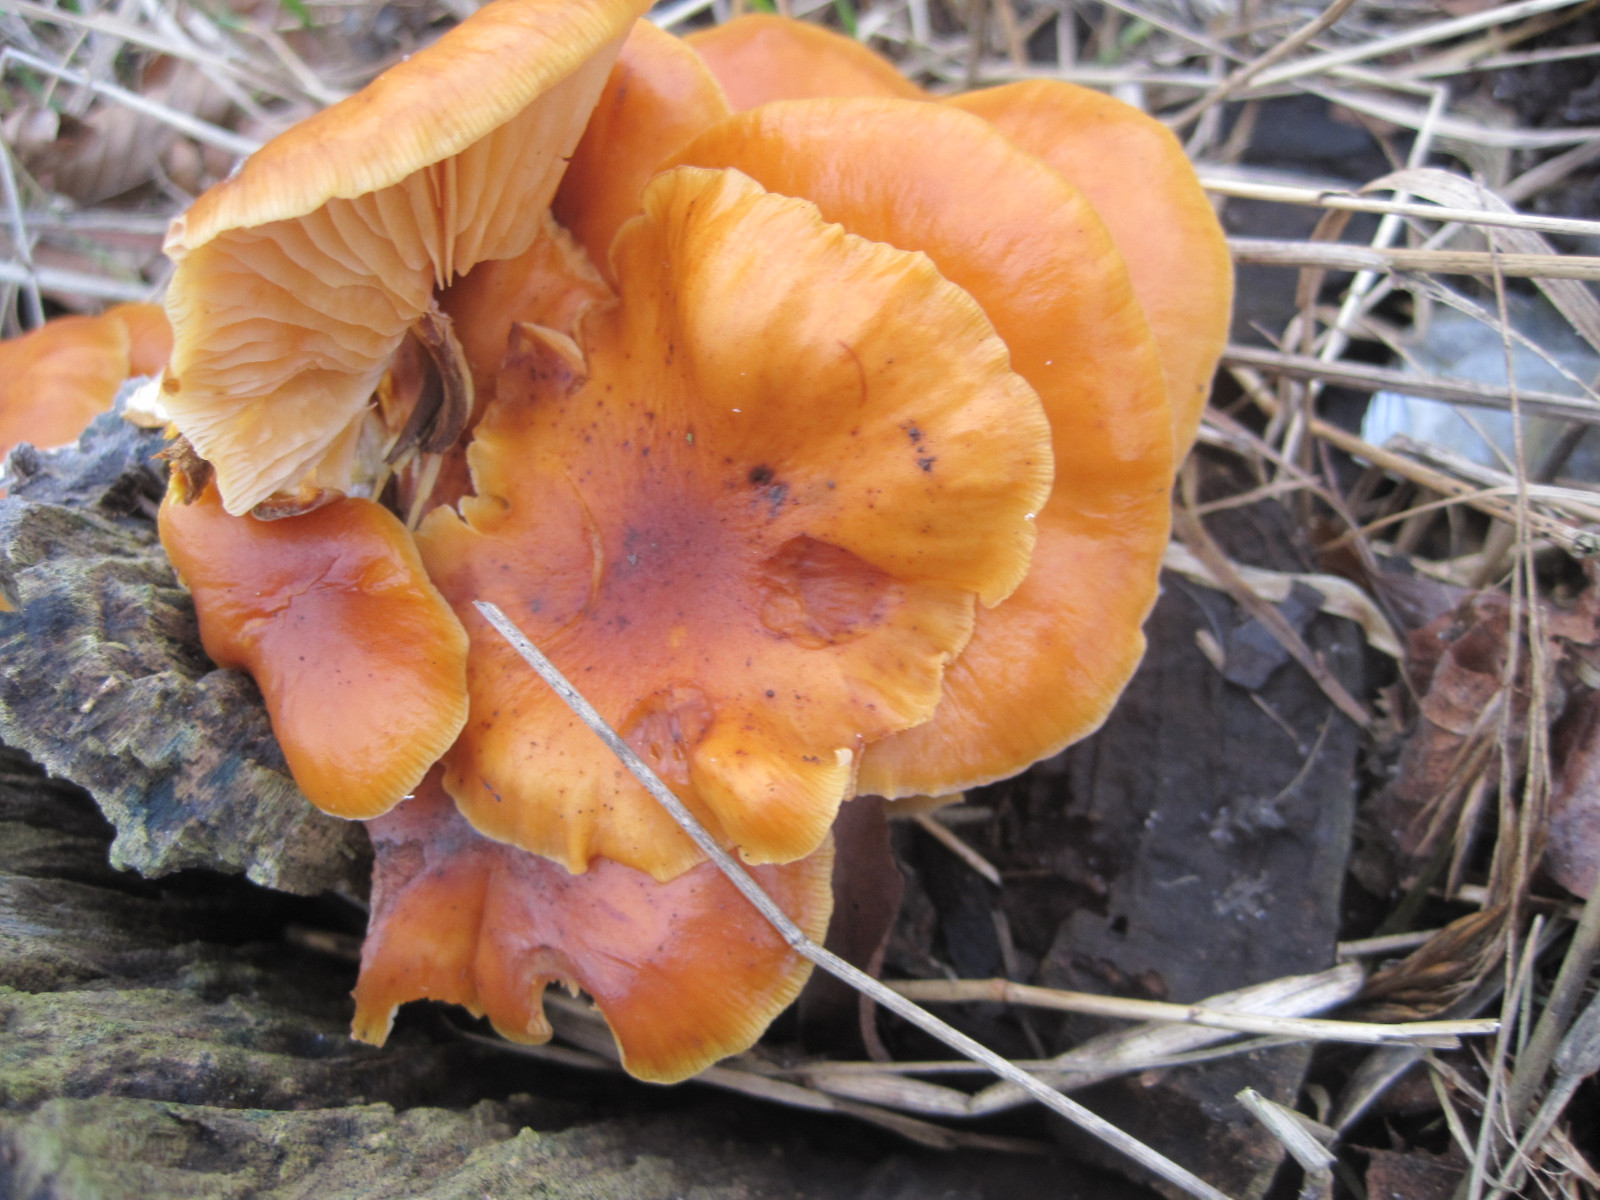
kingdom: Fungi
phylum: Basidiomycota
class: Agaricomycetes
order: Agaricales
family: Physalacriaceae
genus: Flammulina
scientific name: Flammulina velutipes
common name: gul fløjlsfod
